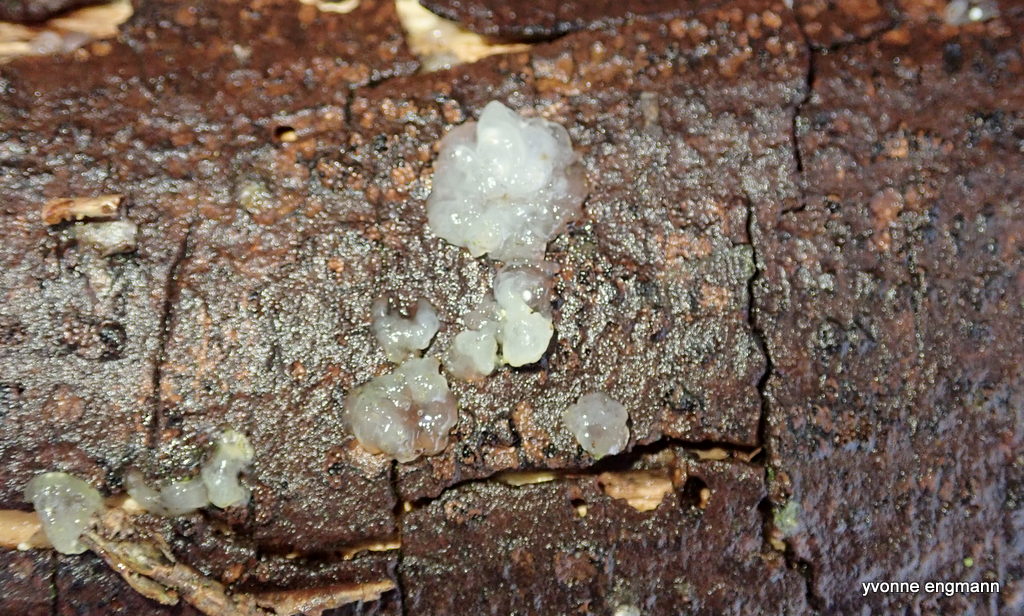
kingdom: Fungi
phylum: Basidiomycota
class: Agaricomycetes
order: Auriculariales
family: Hyaloriaceae
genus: Myxarium
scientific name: Myxarium nucleatum
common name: klar bævretop
